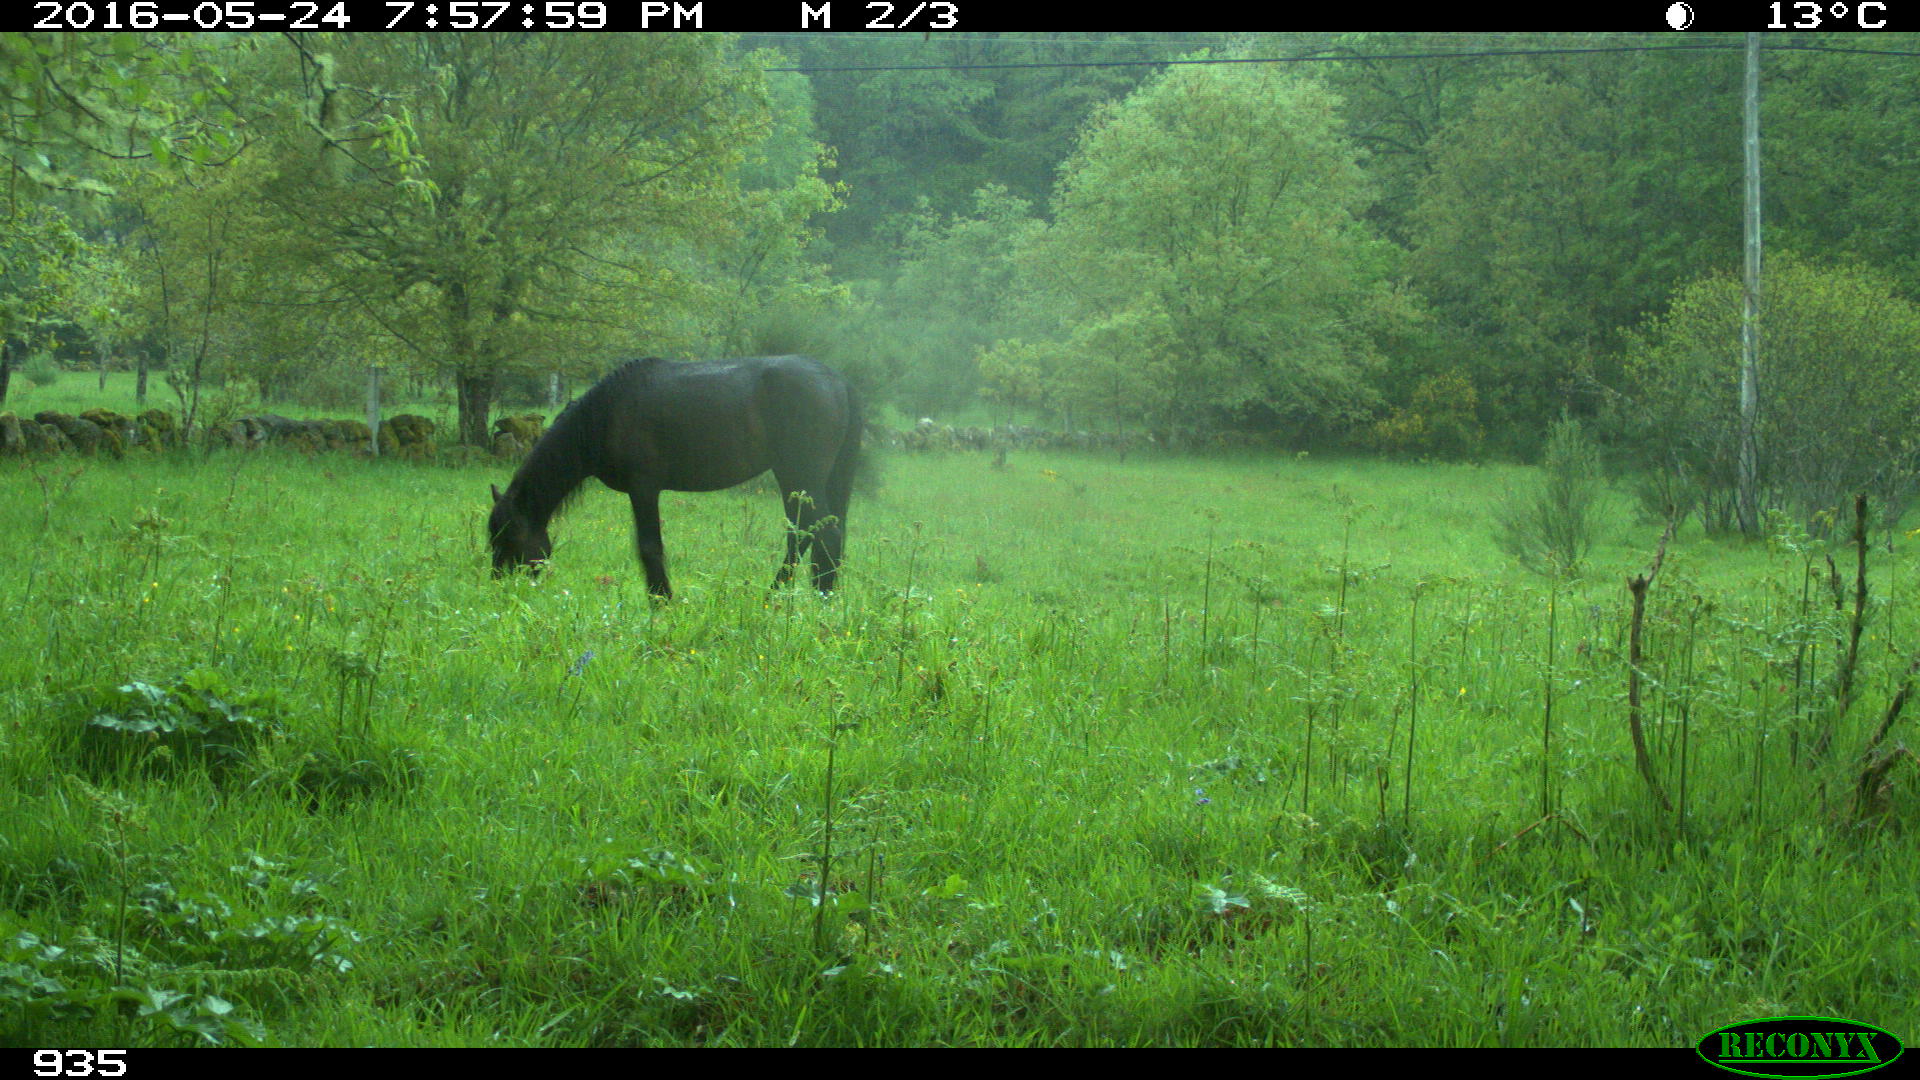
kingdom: Animalia
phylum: Chordata
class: Mammalia
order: Perissodactyla
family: Equidae
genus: Equus
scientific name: Equus caballus
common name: Horse
